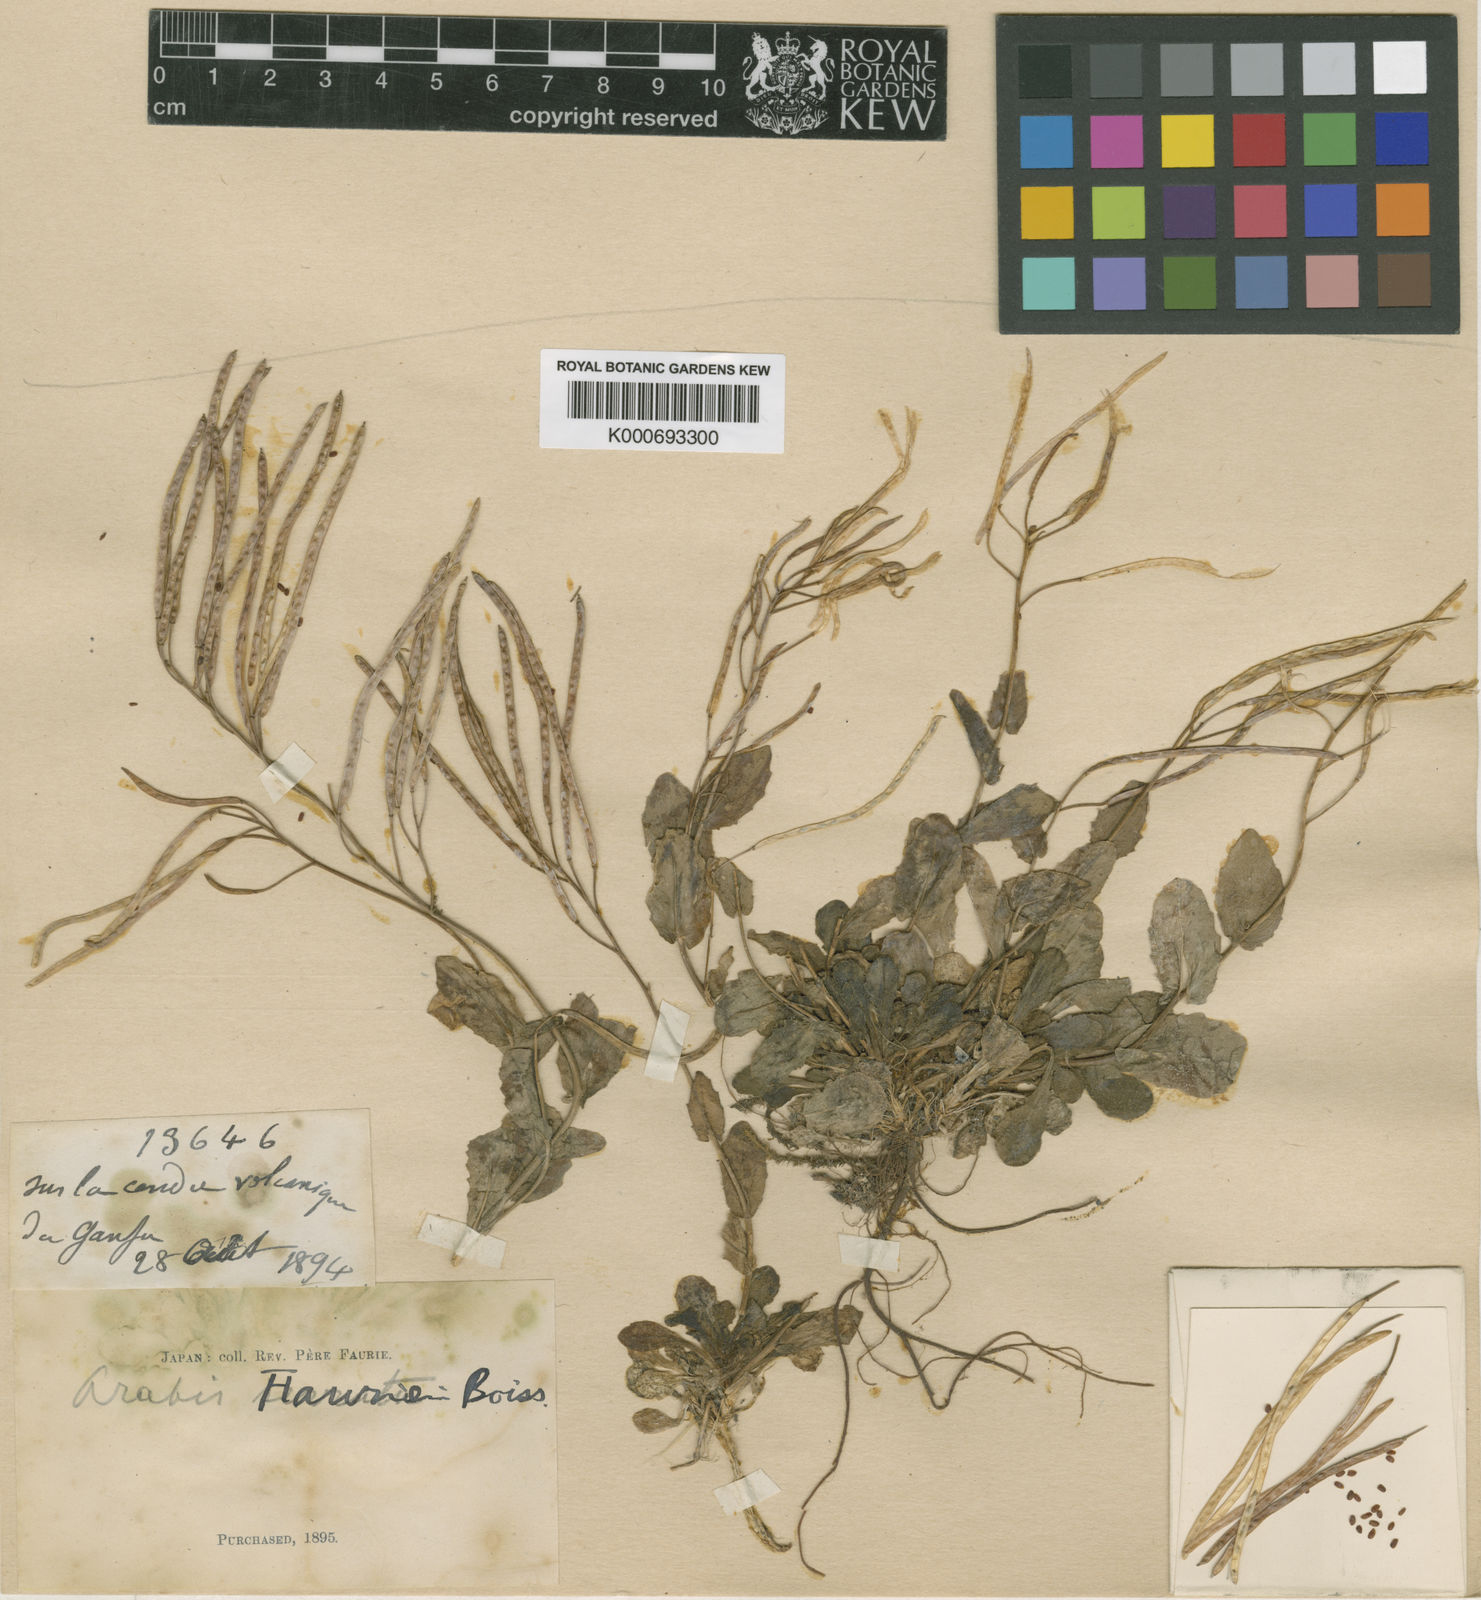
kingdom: Plantae
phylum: Tracheophyta
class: Magnoliopsida
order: Brassicales
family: Brassicaceae
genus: Arabis
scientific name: Arabis serrata
